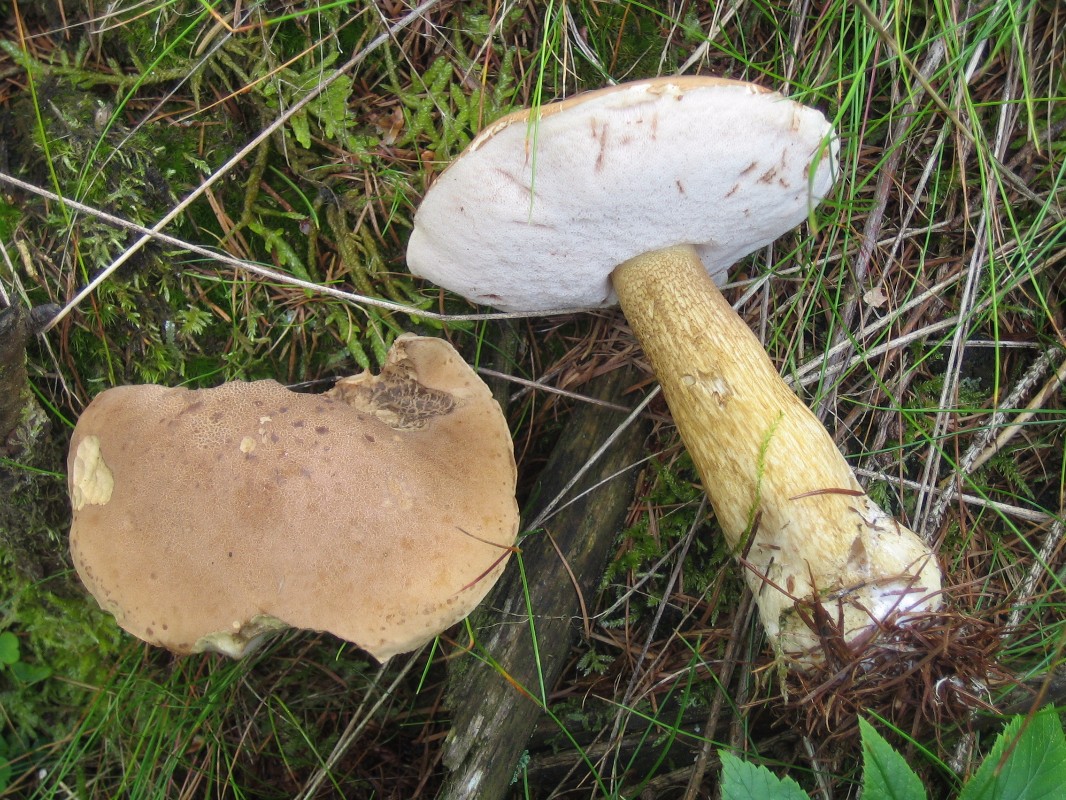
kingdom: Fungi
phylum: Basidiomycota
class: Agaricomycetes
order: Boletales
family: Boletaceae
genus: Tylopilus
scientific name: Tylopilus felleus
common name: galderørhat
